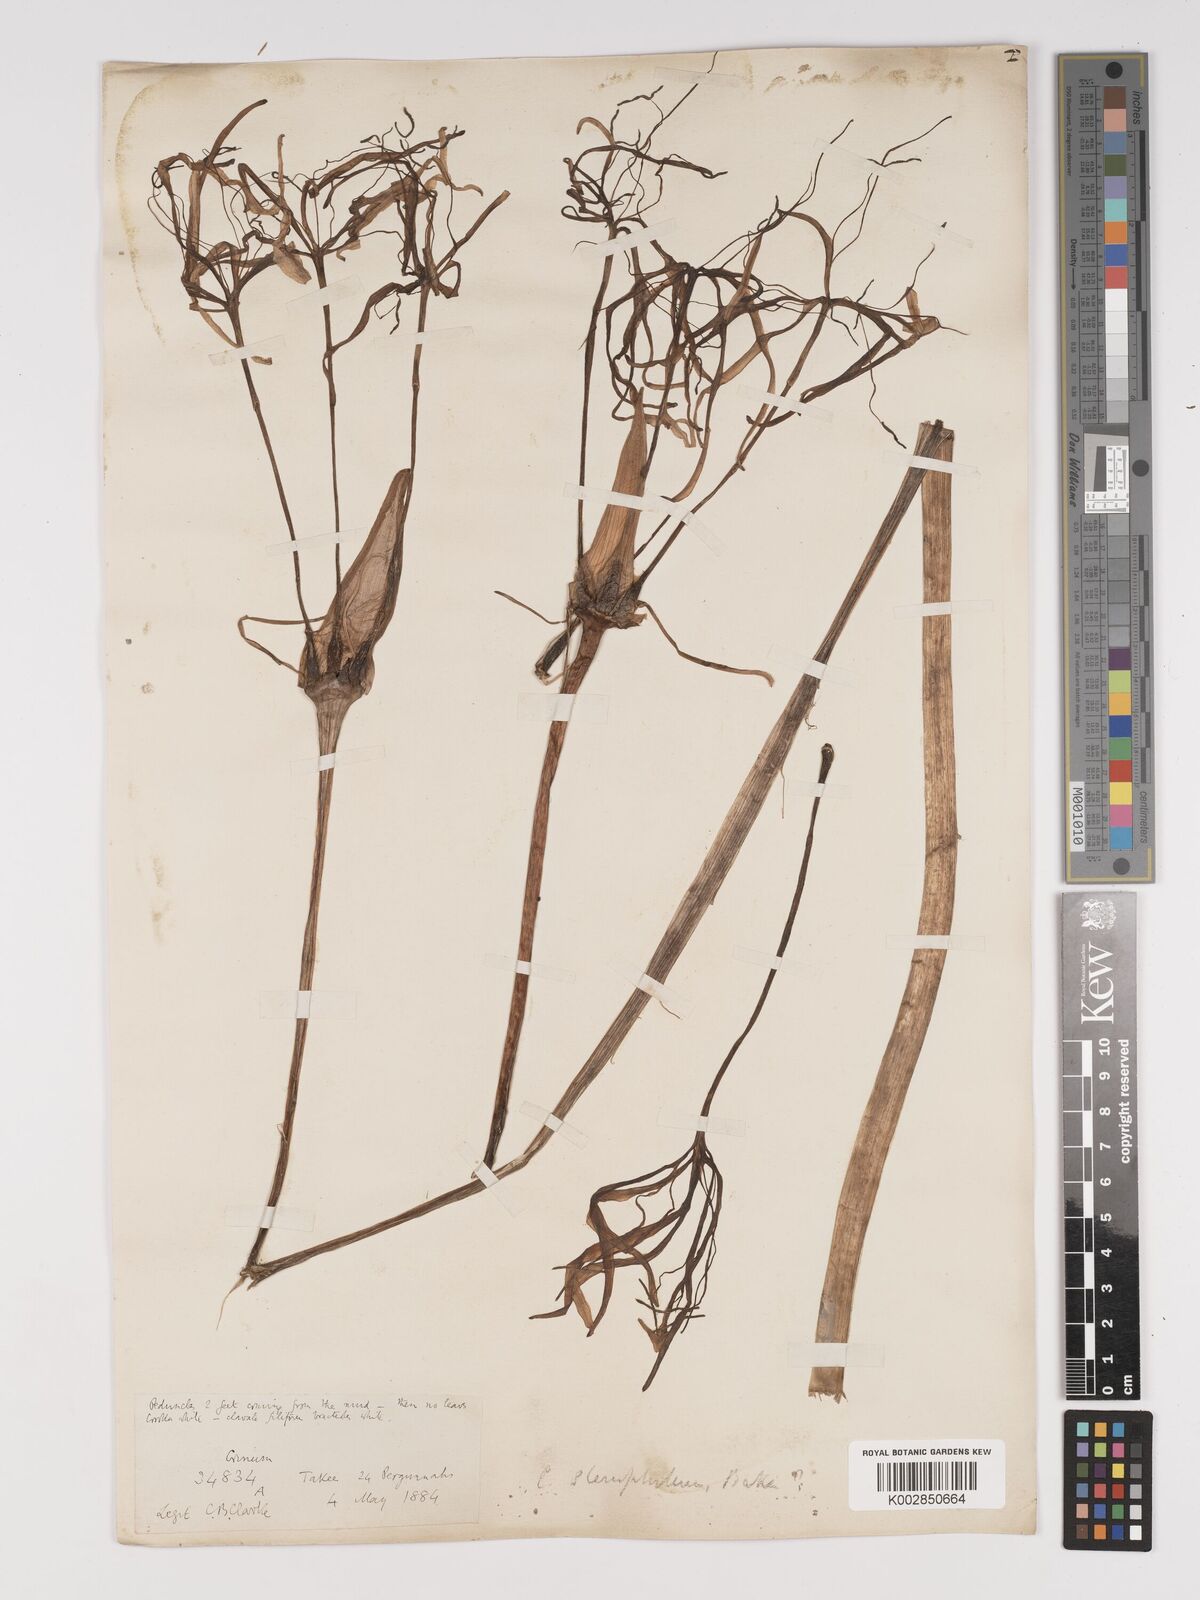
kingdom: Plantae
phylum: Tracheophyta
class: Liliopsida
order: Asparagales
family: Amaryllidaceae
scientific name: Amaryllidaceae
